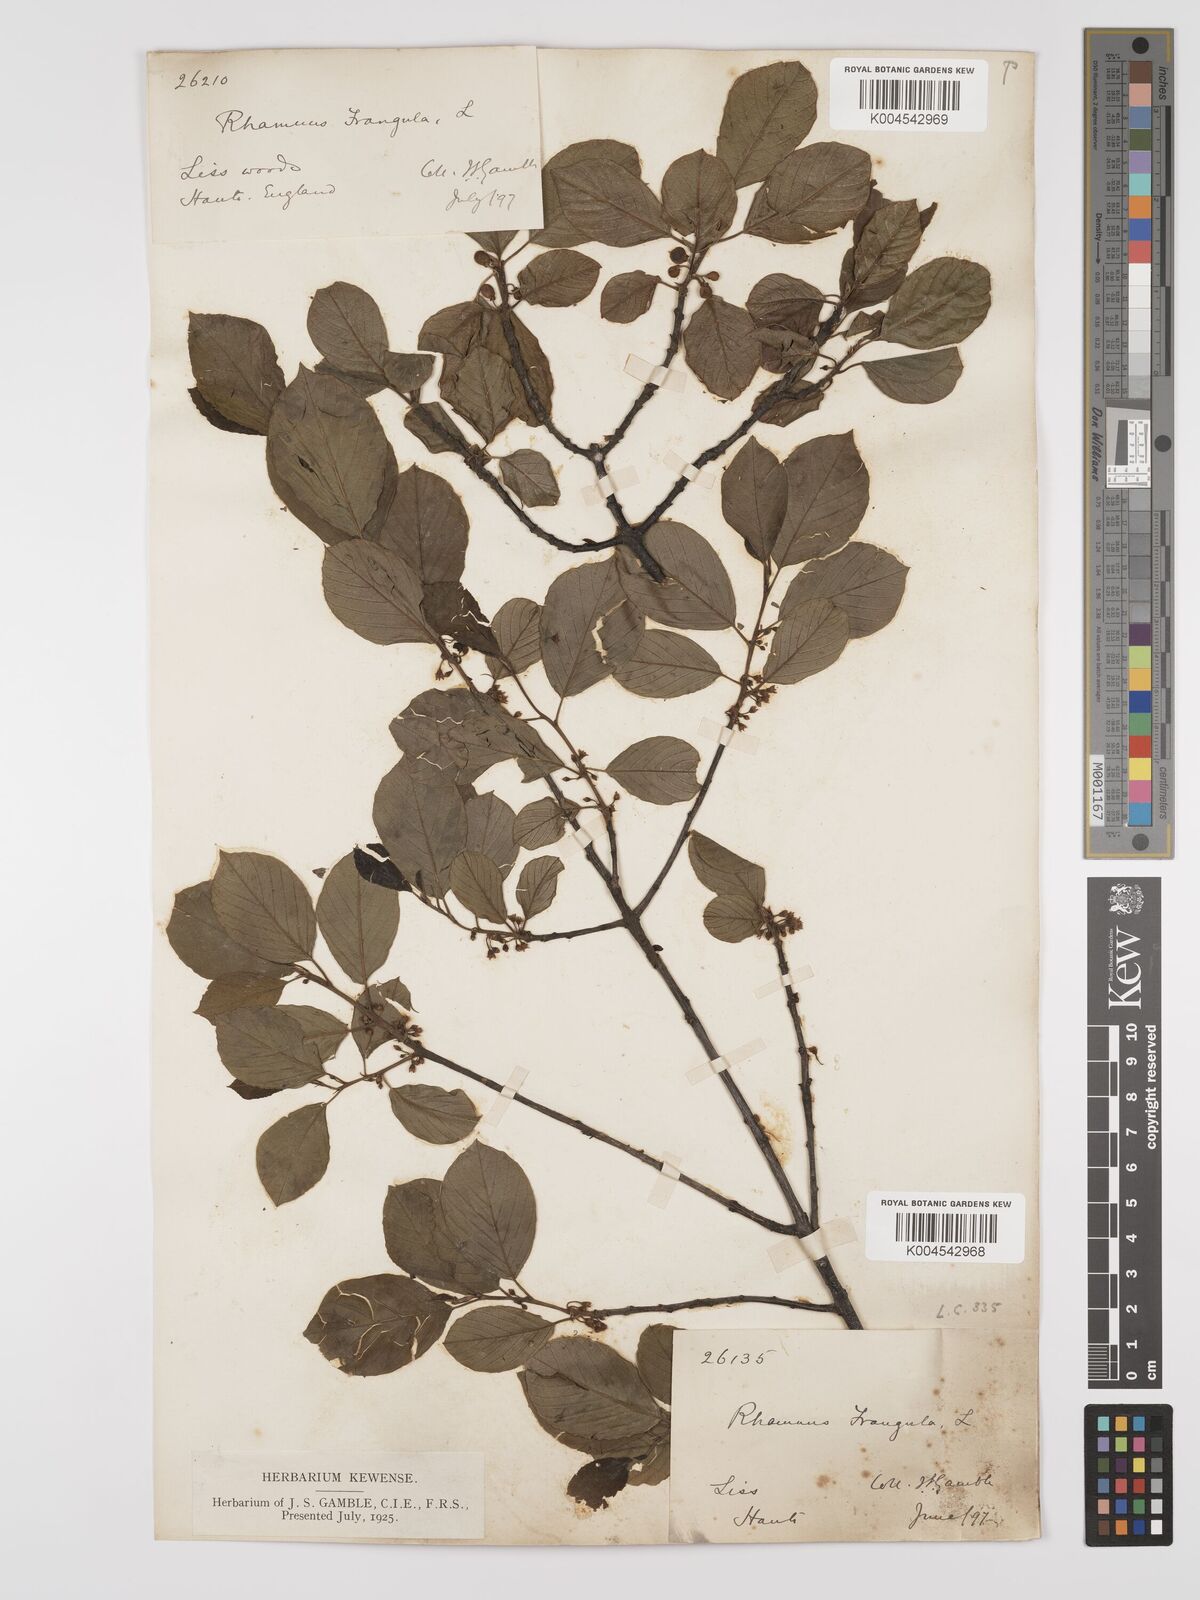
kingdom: Plantae
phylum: Tracheophyta
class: Magnoliopsida
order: Rosales
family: Rhamnaceae
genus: Frangula
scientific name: Frangula alnus
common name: Alder buckthorn
